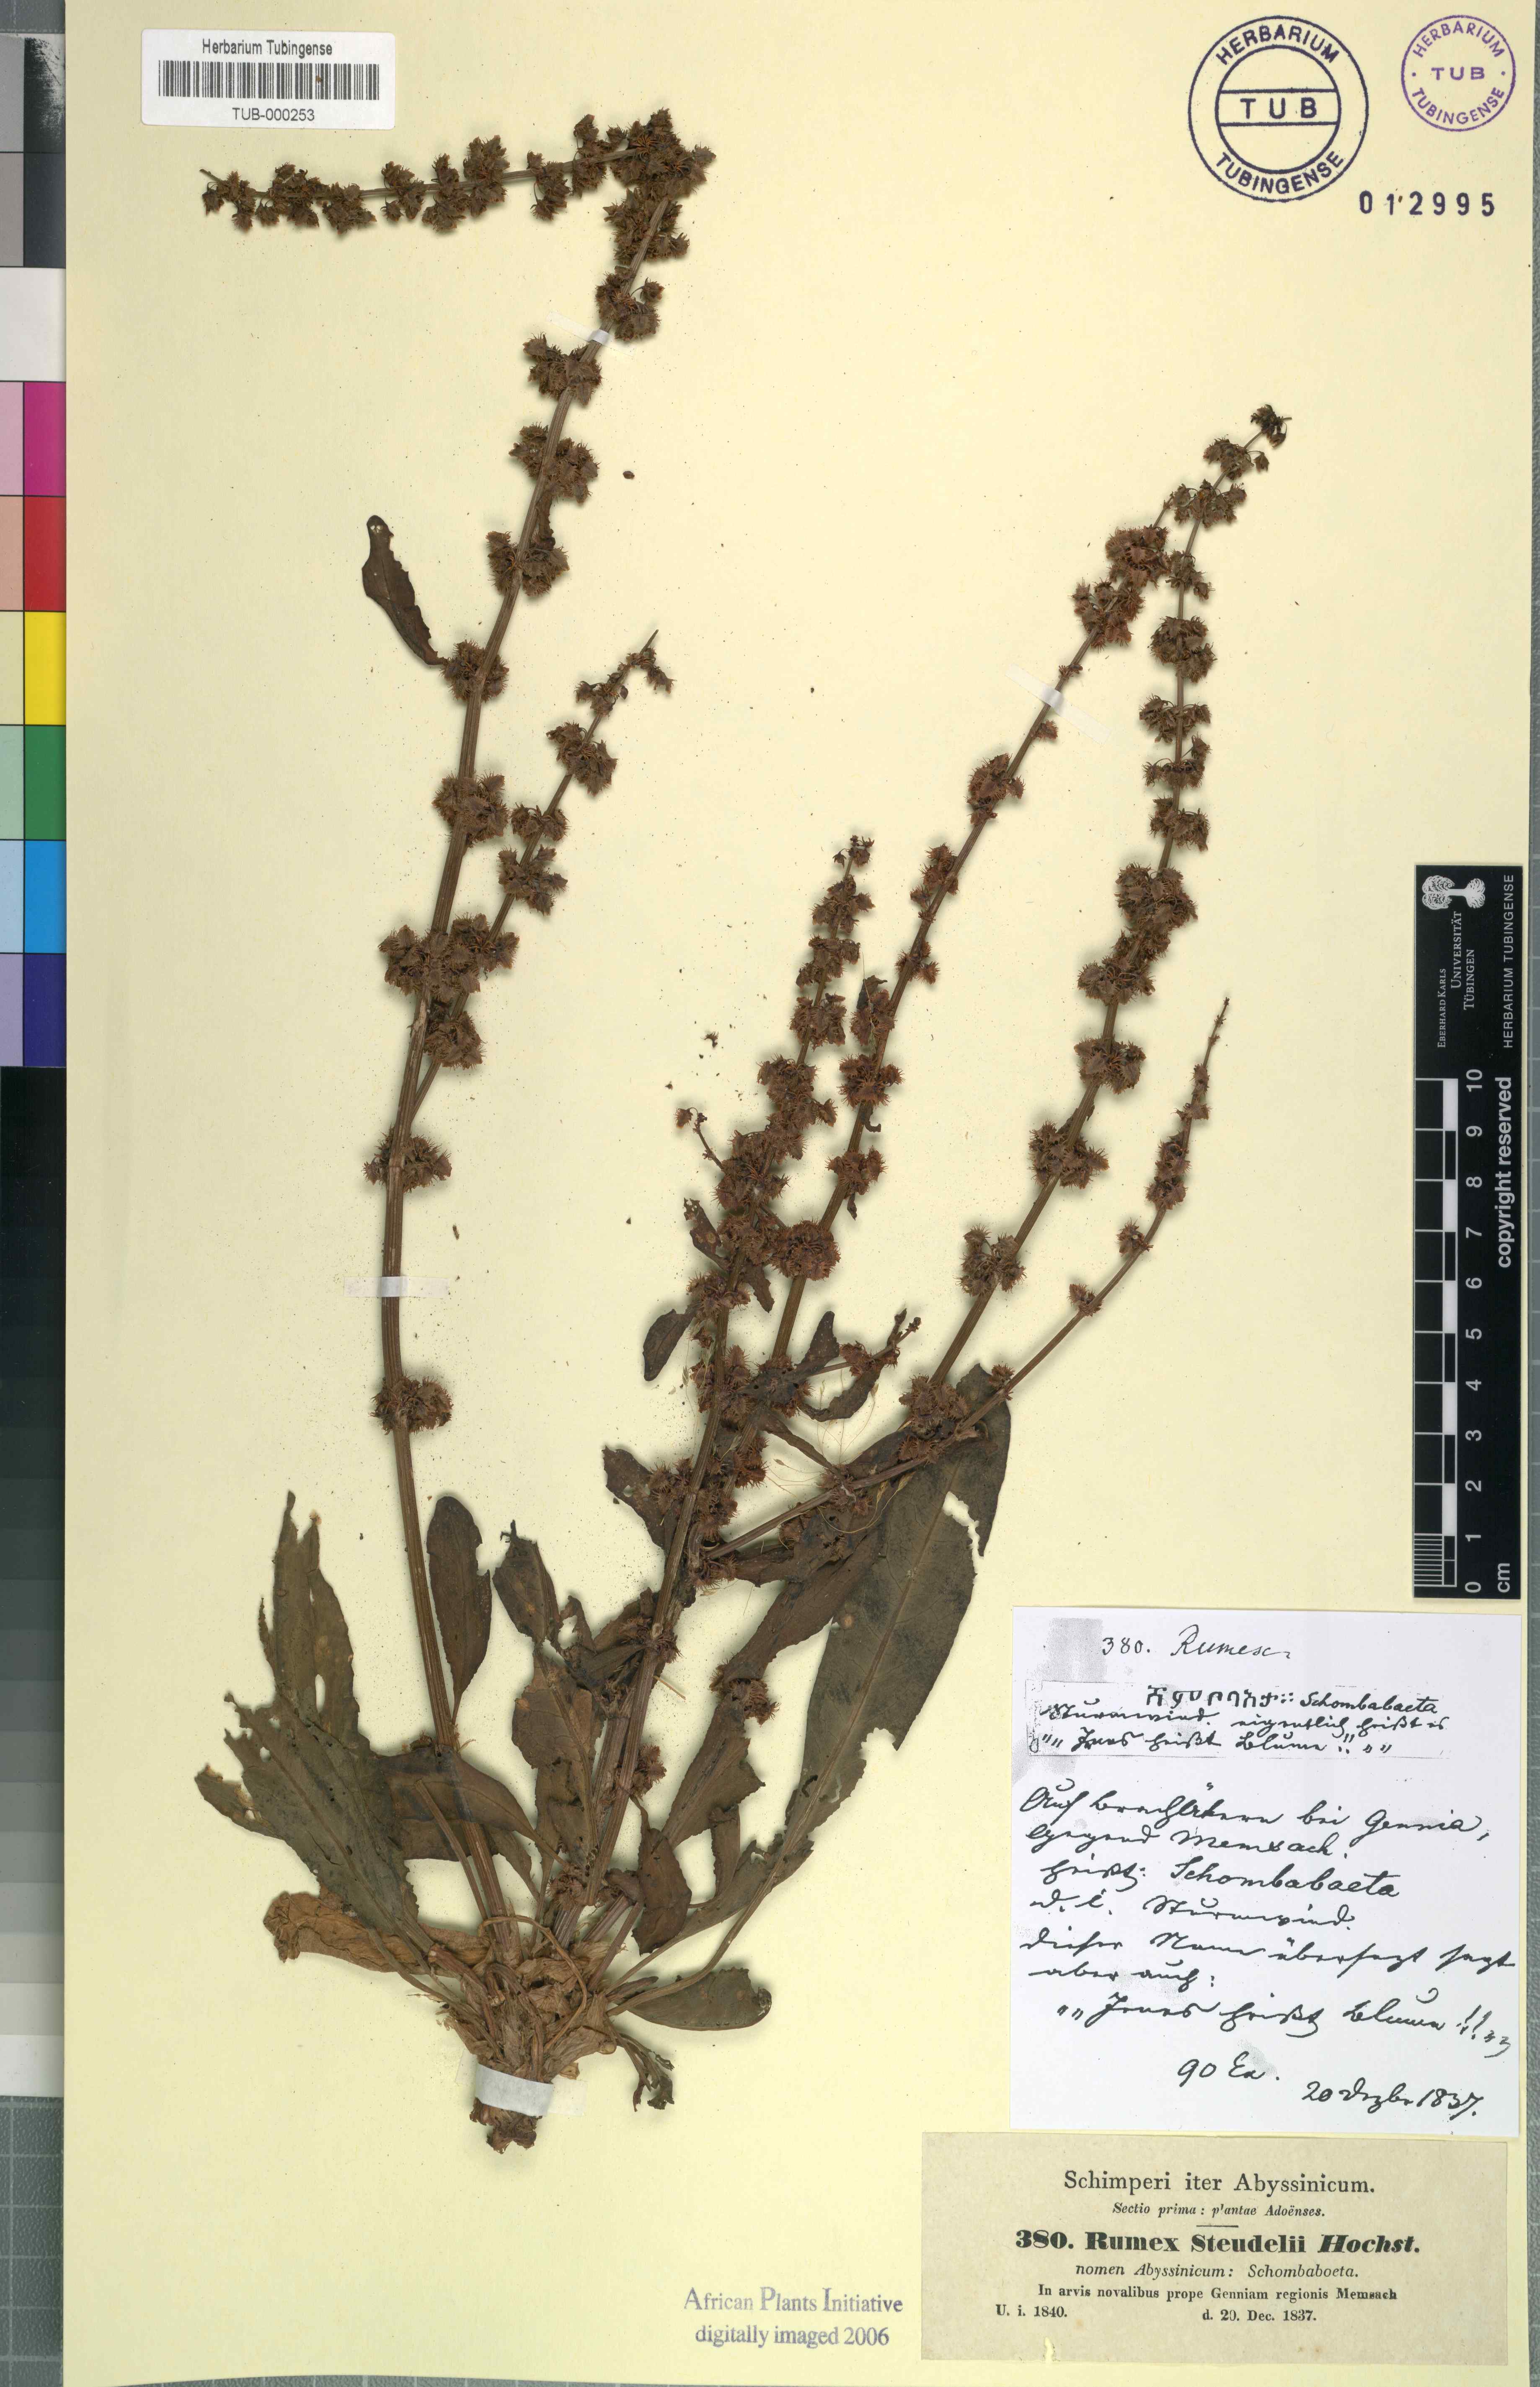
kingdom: Plantae
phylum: Tracheophyta
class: Magnoliopsida
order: Caryophyllales
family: Polygonaceae
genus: Rumex
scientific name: Rumex obtusifolius
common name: Bitter dock
